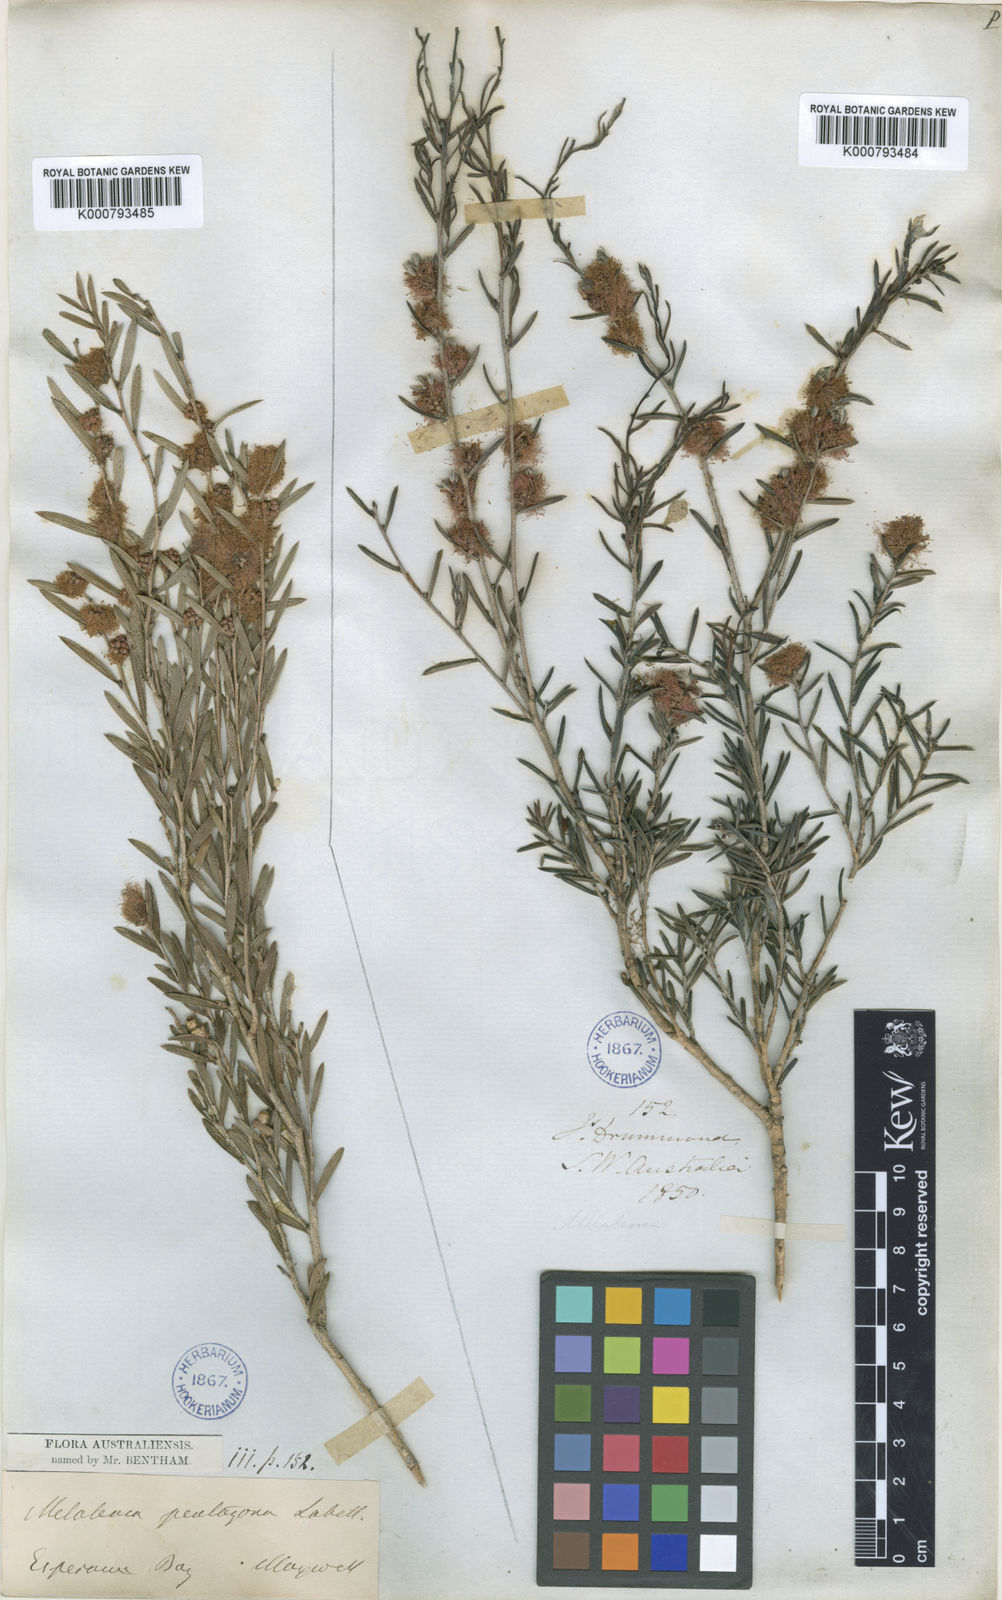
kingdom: Plantae
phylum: Tracheophyta
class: Magnoliopsida
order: Myrtales
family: Myrtaceae
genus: Melaleuca
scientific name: Melaleuca pentagona
